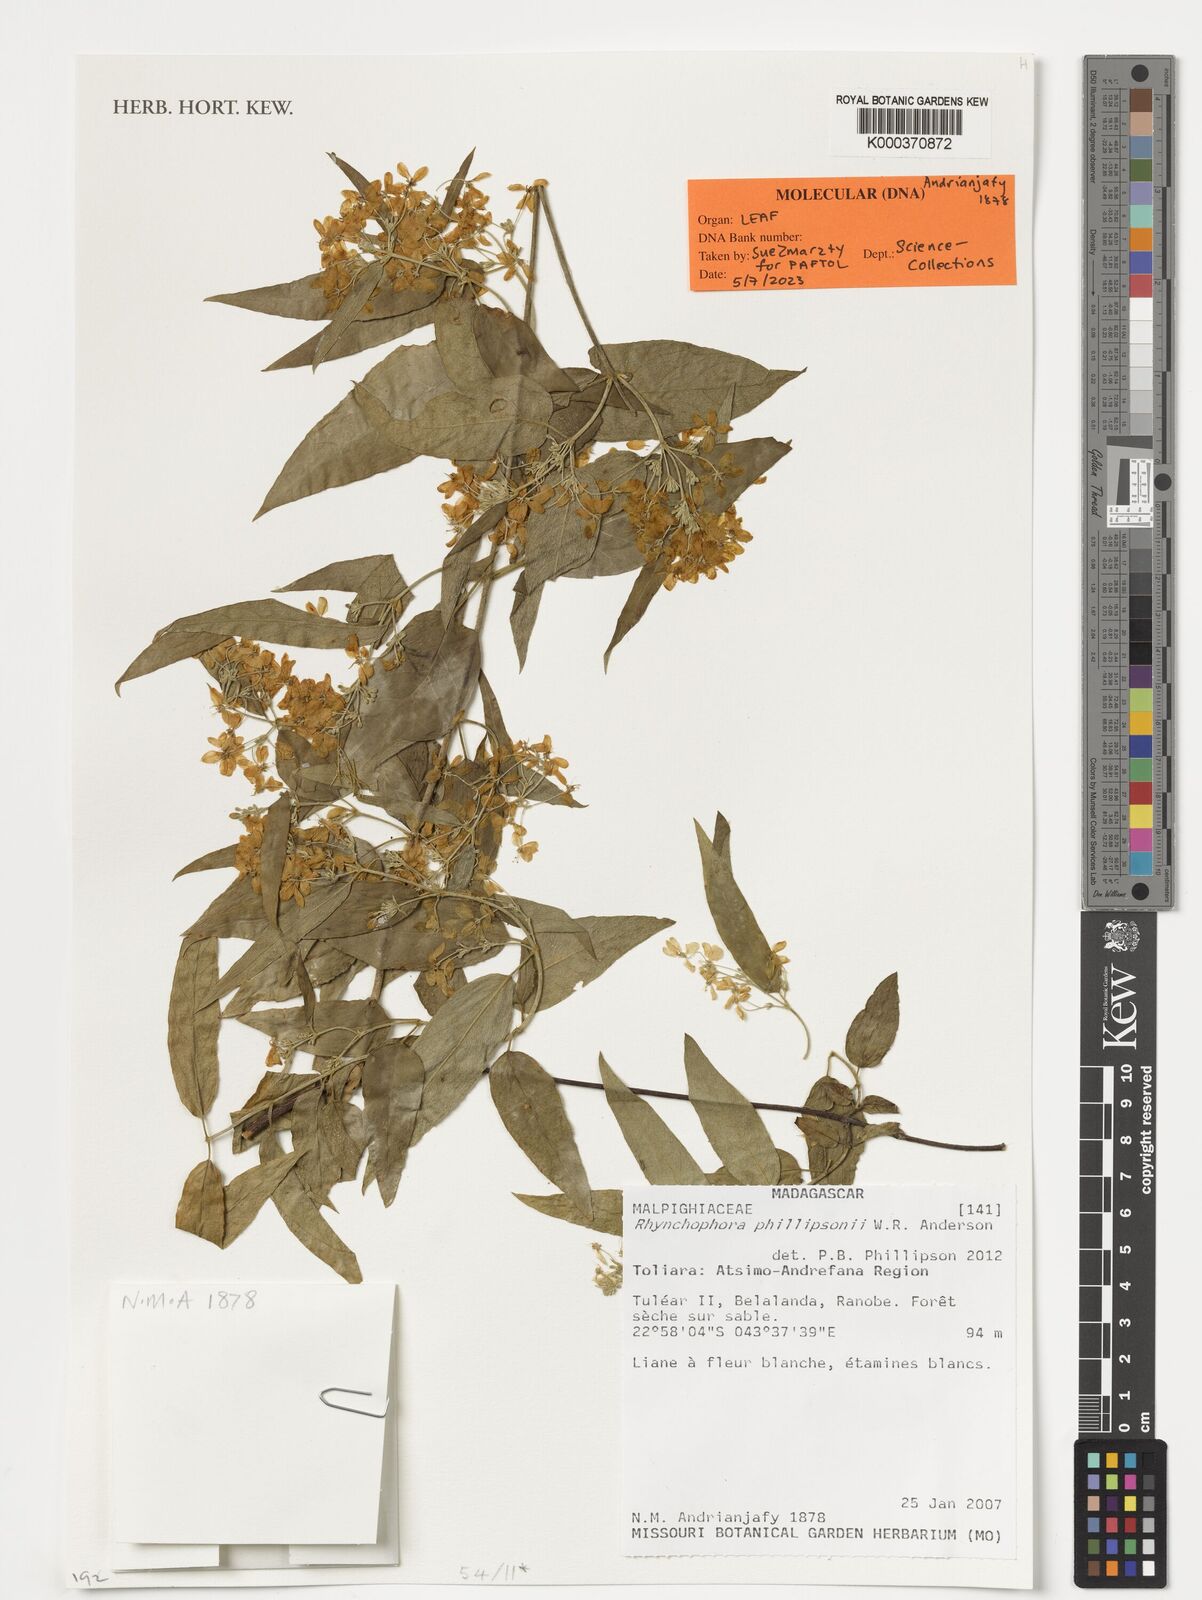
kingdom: Plantae
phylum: Tracheophyta
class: Magnoliopsida
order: Malpighiales
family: Malpighiaceae
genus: Rhynchophora
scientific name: Rhynchophora phillipsonii
